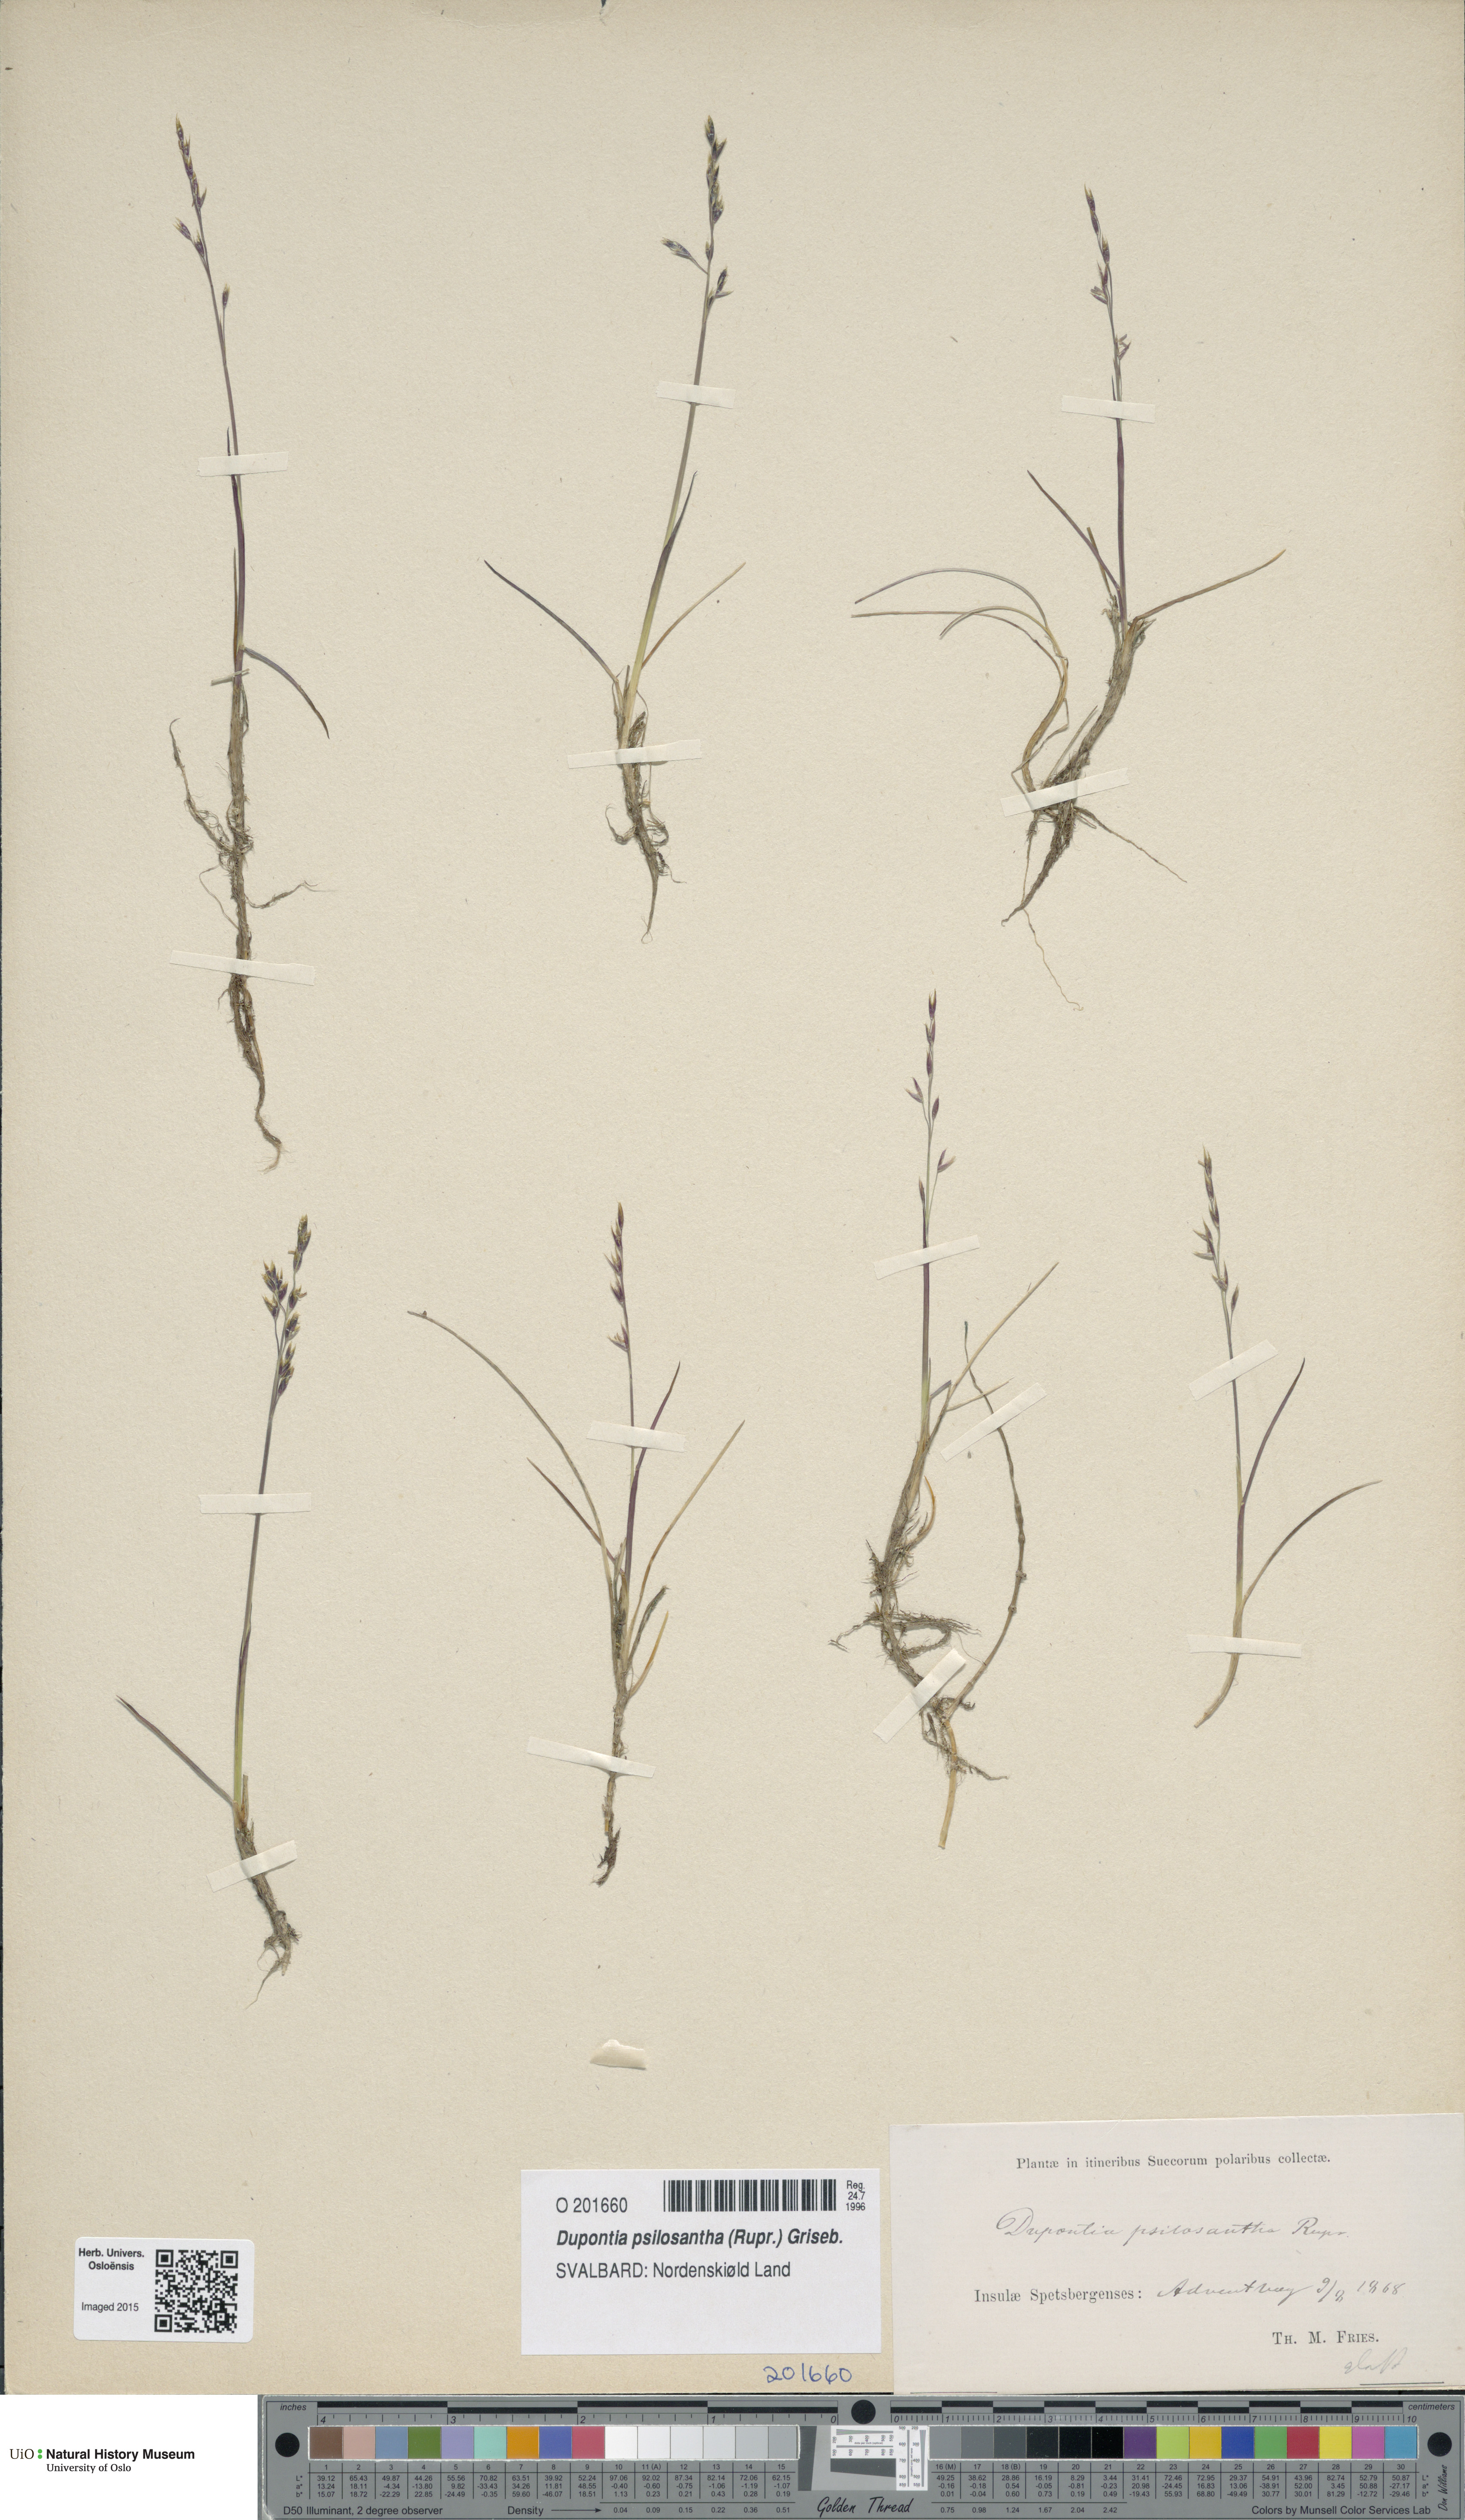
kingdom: Plantae
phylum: Tracheophyta
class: Liliopsida
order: Poales
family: Poaceae
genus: Dupontia
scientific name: Dupontia fisheri
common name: Tundra grass
